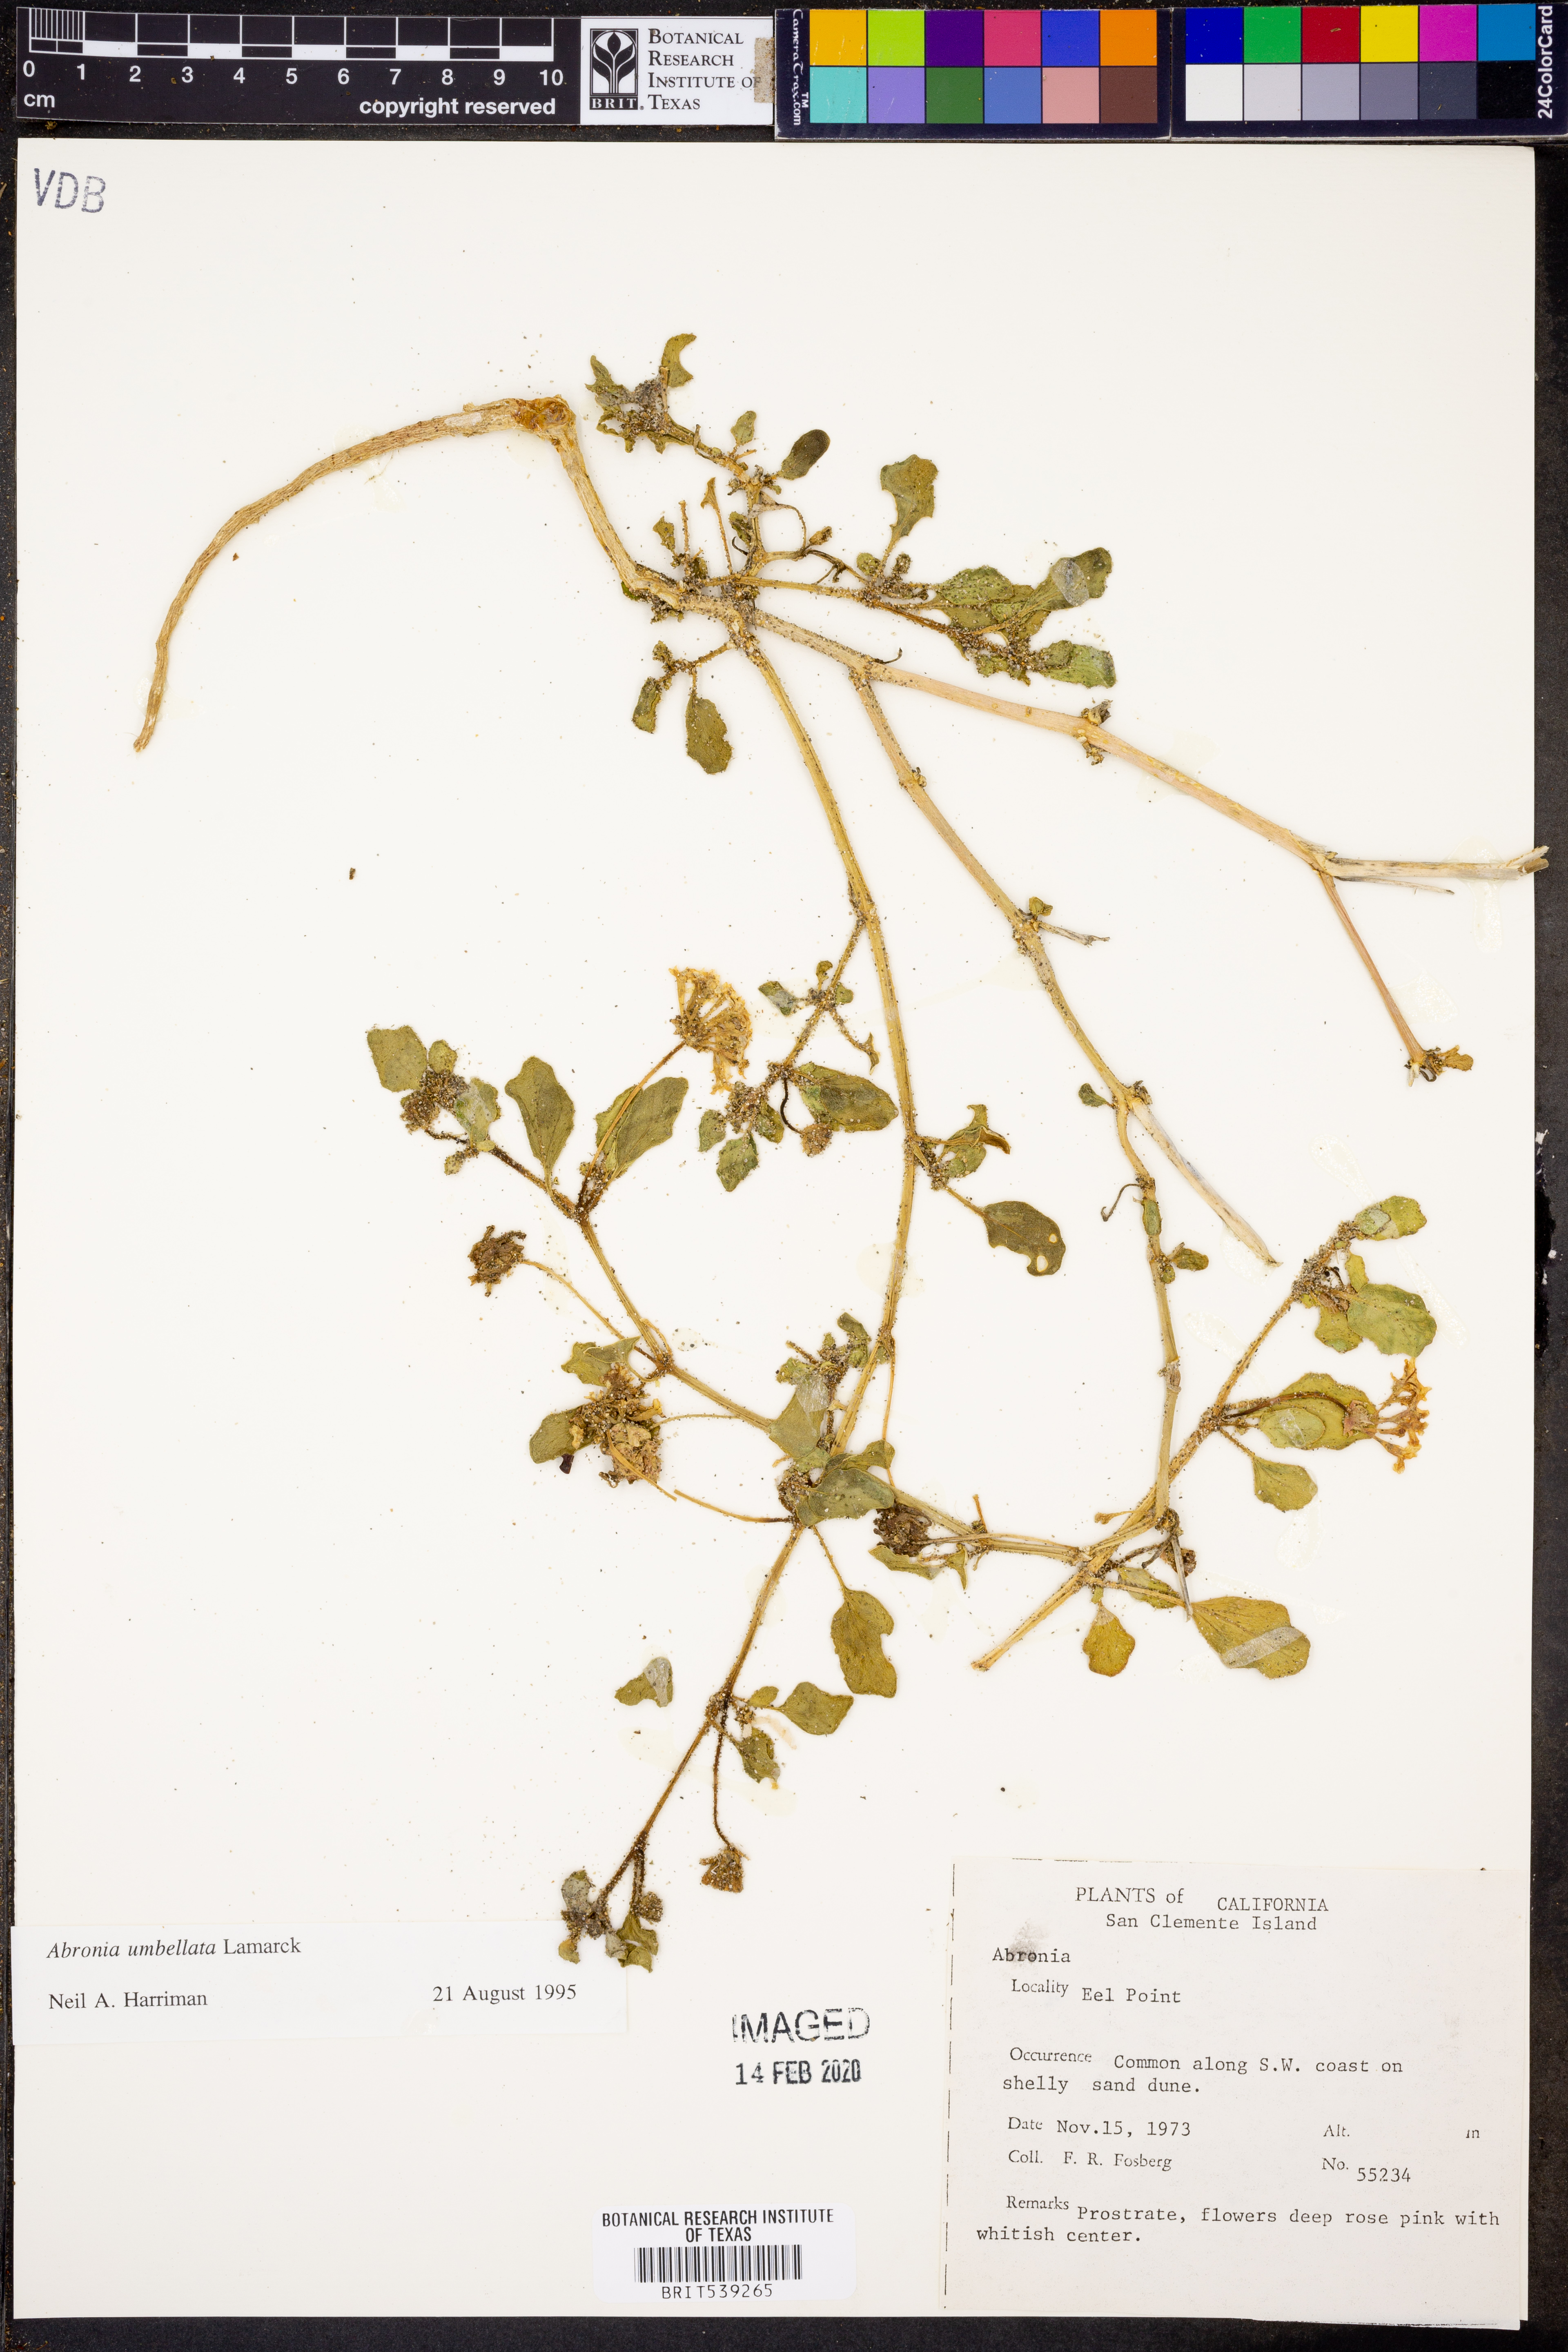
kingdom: Plantae
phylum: Tracheophyta
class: Magnoliopsida
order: Caryophyllales
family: Nyctaginaceae
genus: Abronia
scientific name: Abronia umbellata
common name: Sand-verbena
